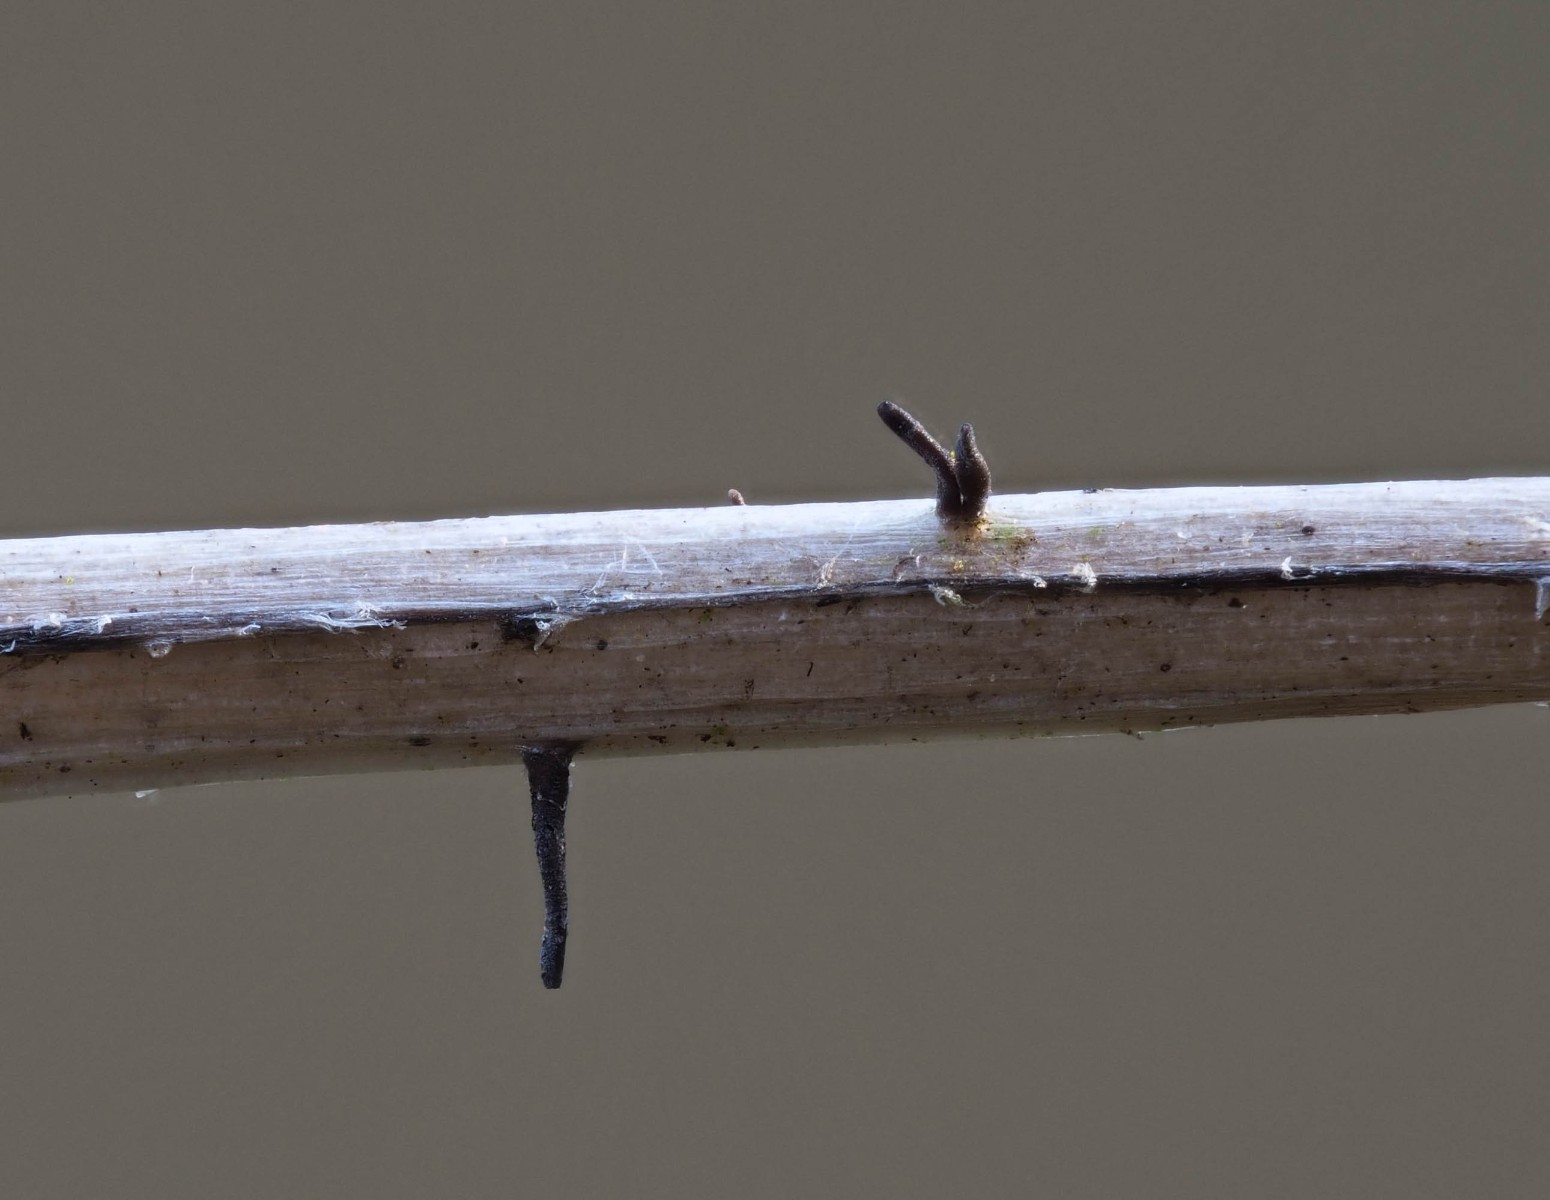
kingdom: Fungi
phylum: Ascomycota
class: Dothideomycetes
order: Acrospermales
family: Acrospermaceae
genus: Acrospermum
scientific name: Acrospermum pallidulum
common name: snerre-stængeltunge
